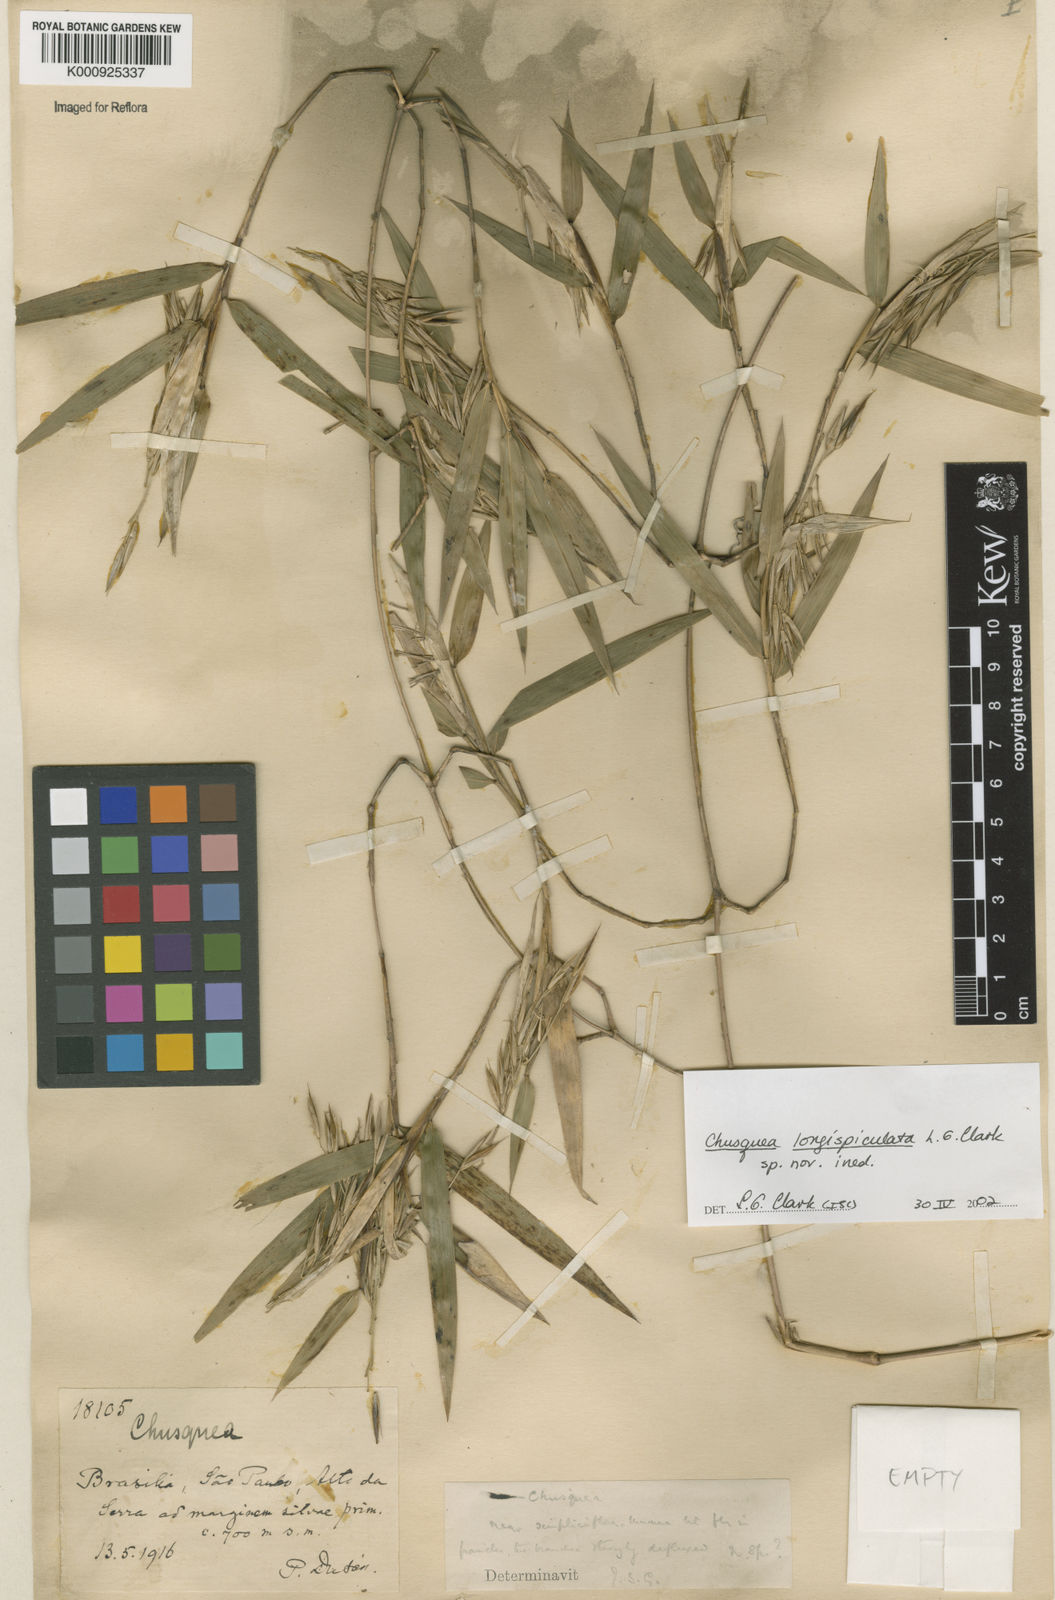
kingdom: Plantae
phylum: Tracheophyta
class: Liliopsida
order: Poales
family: Poaceae
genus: Chusquea
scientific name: Chusquea longispiculata
